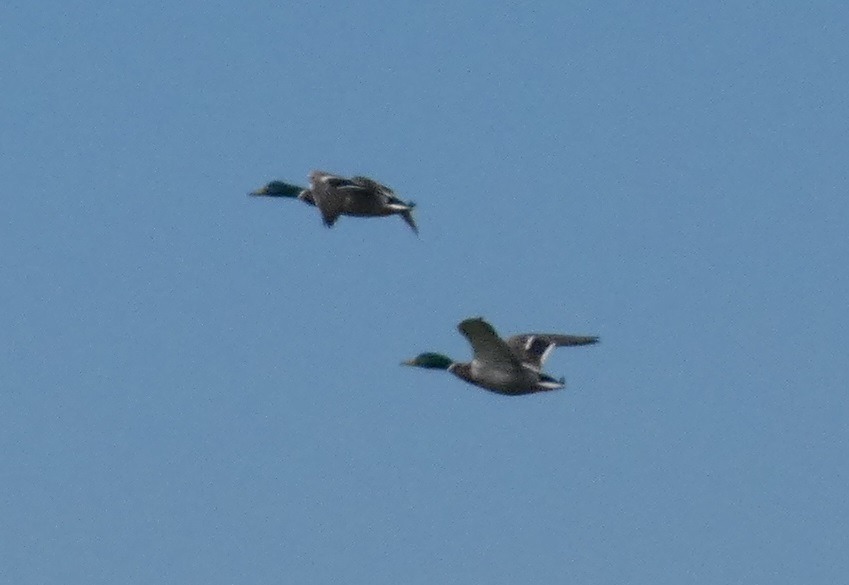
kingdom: Animalia
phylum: Chordata
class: Aves
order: Anseriformes
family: Anatidae
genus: Anas
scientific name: Anas platyrhynchos
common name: Gråand
